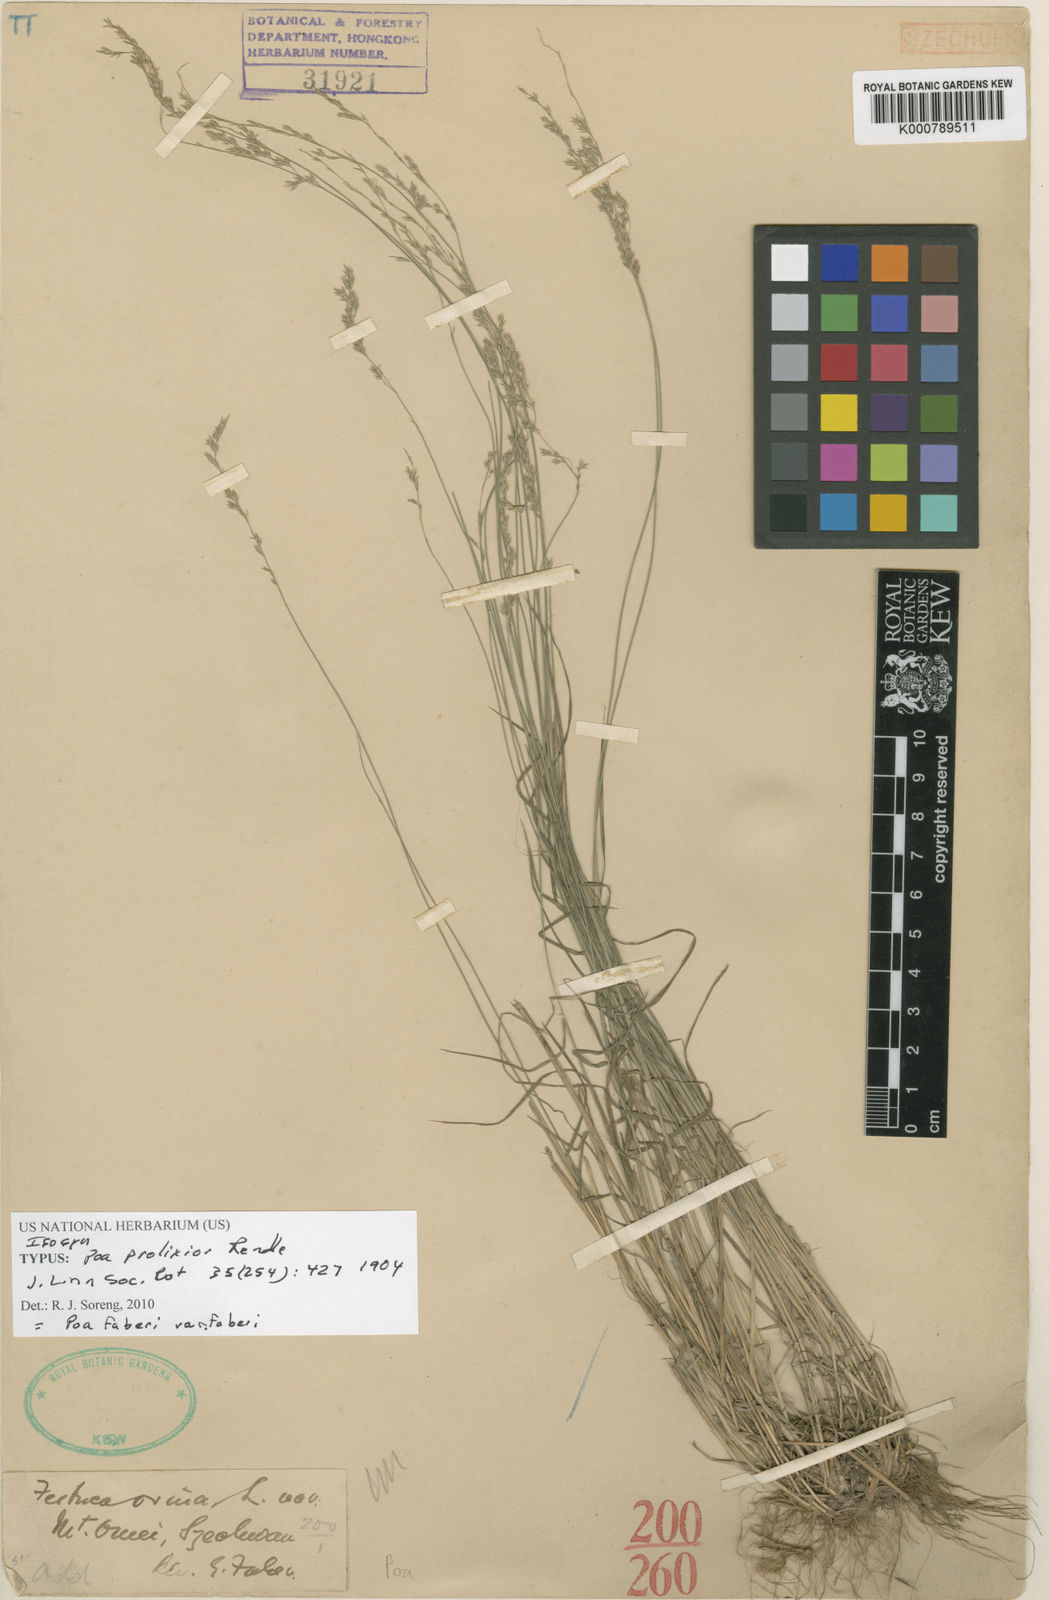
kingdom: Plantae
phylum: Tracheophyta
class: Liliopsida
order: Poales
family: Poaceae
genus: Poa
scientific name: Poa faberi
